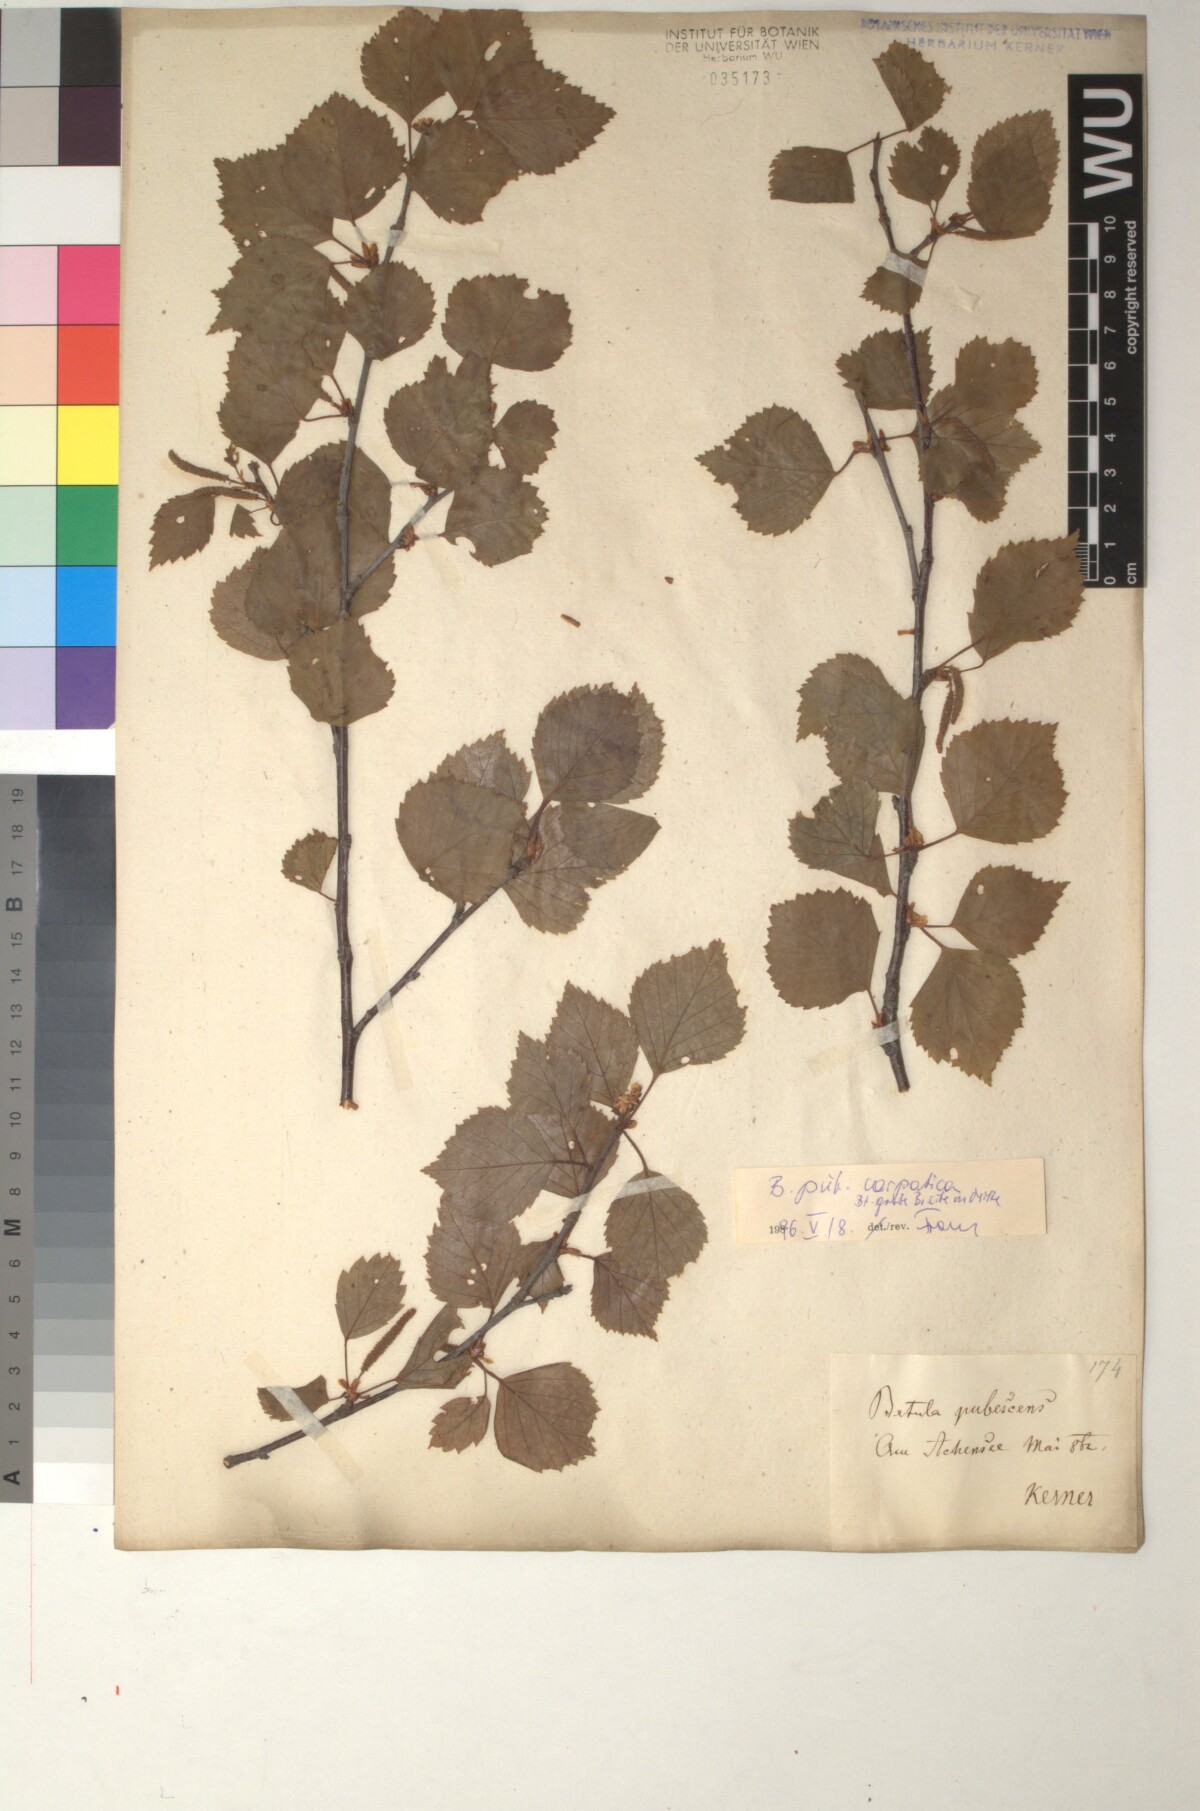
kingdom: Plantae
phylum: Tracheophyta
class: Magnoliopsida
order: Fagales
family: Betulaceae
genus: Betula
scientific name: Betula pubescens
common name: Downy birch
